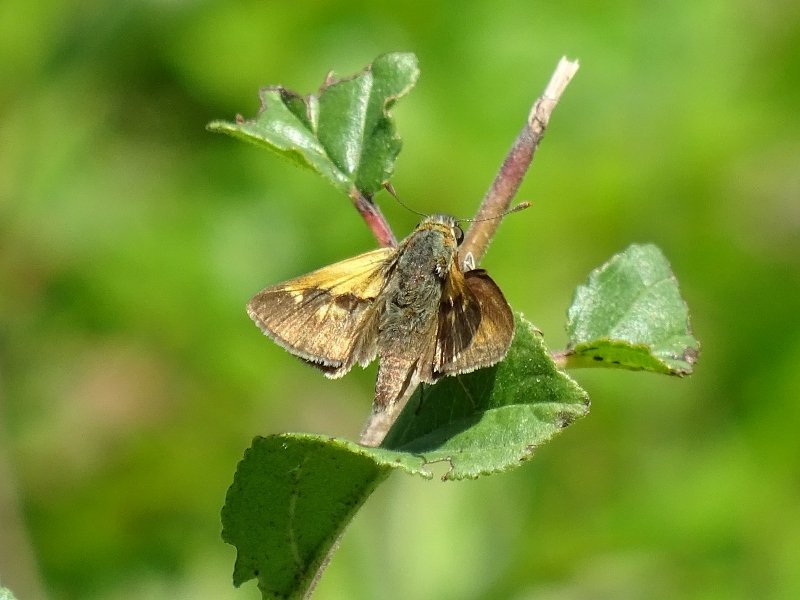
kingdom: Animalia
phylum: Arthropoda
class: Insecta
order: Lepidoptera
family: Hesperiidae
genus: Euphyes
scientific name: Euphyes
